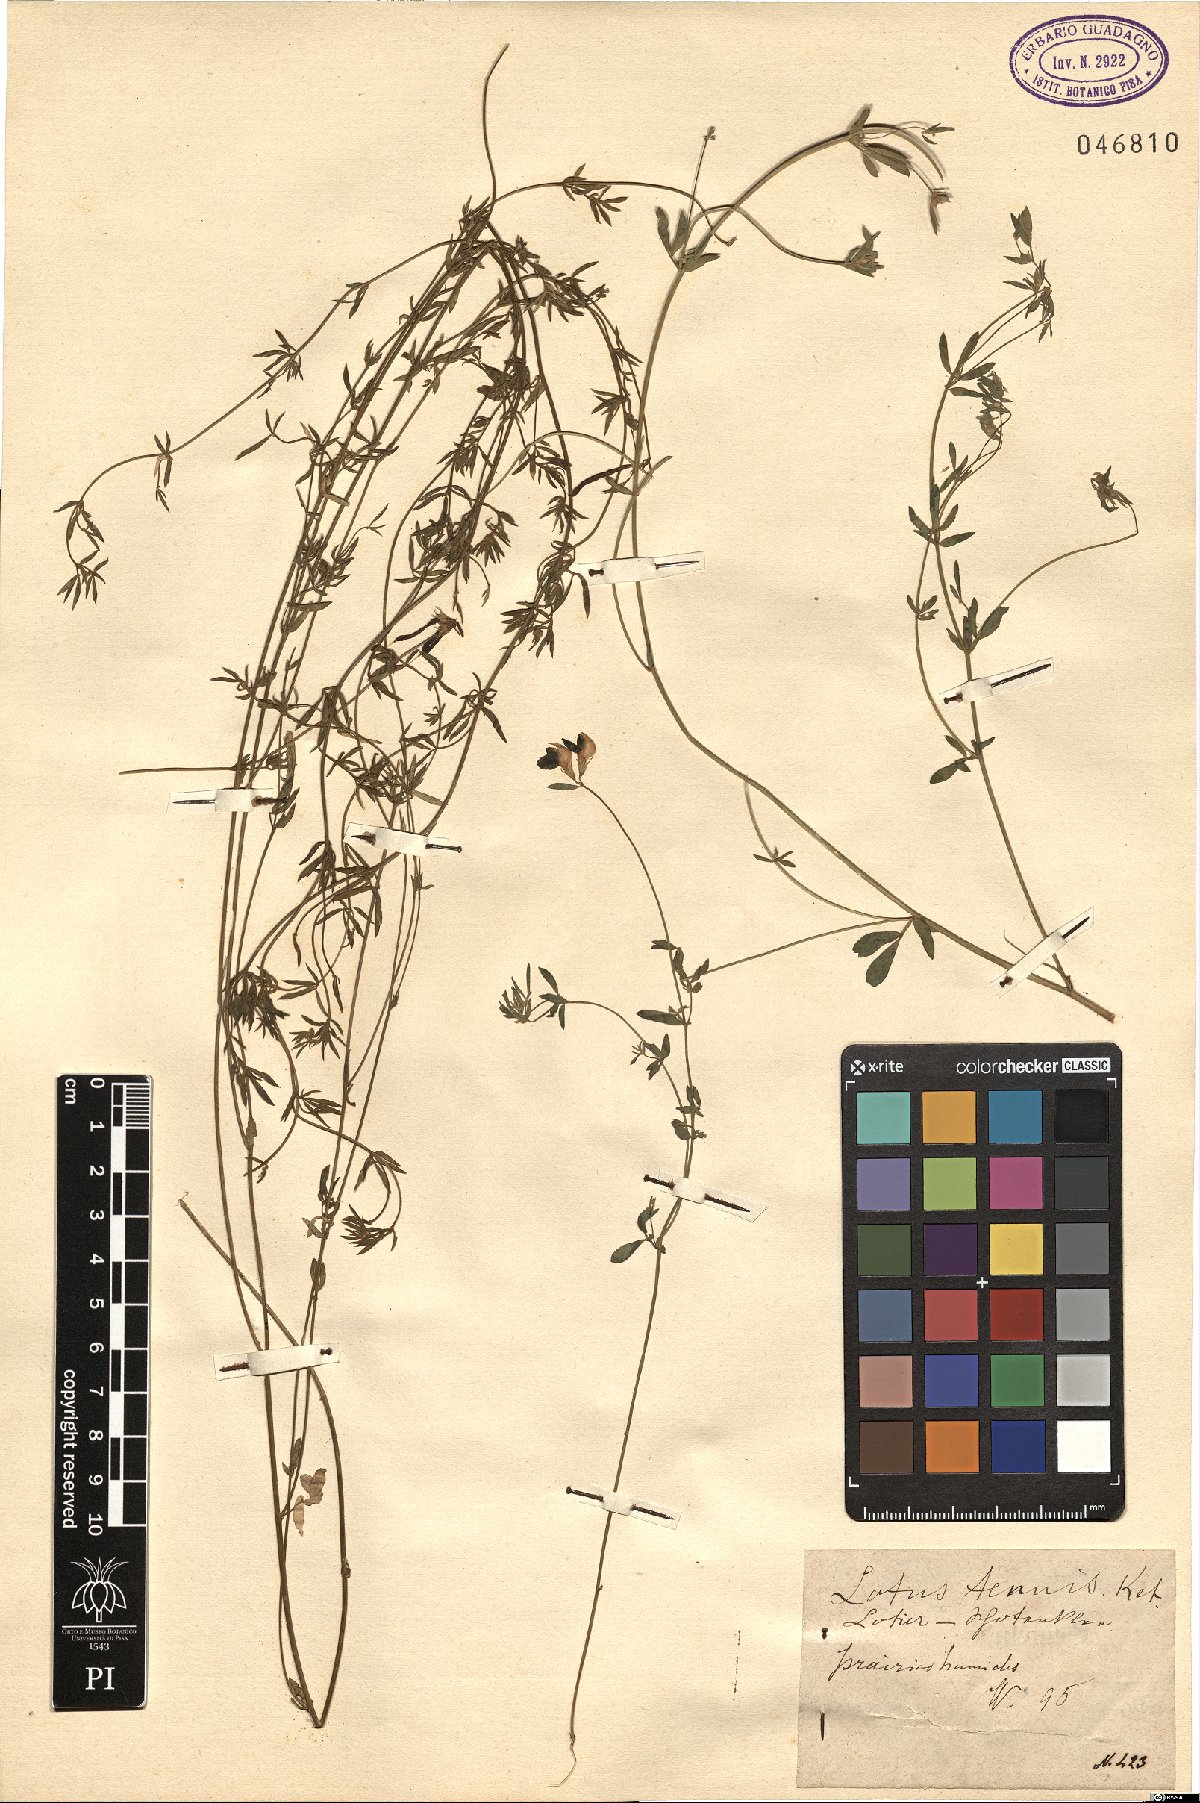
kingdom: Plantae
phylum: Tracheophyta
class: Magnoliopsida
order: Fabales
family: Fabaceae
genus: Lotus
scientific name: Lotus tenuis
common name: Narrow-leaved bird's-foot-trefoil
